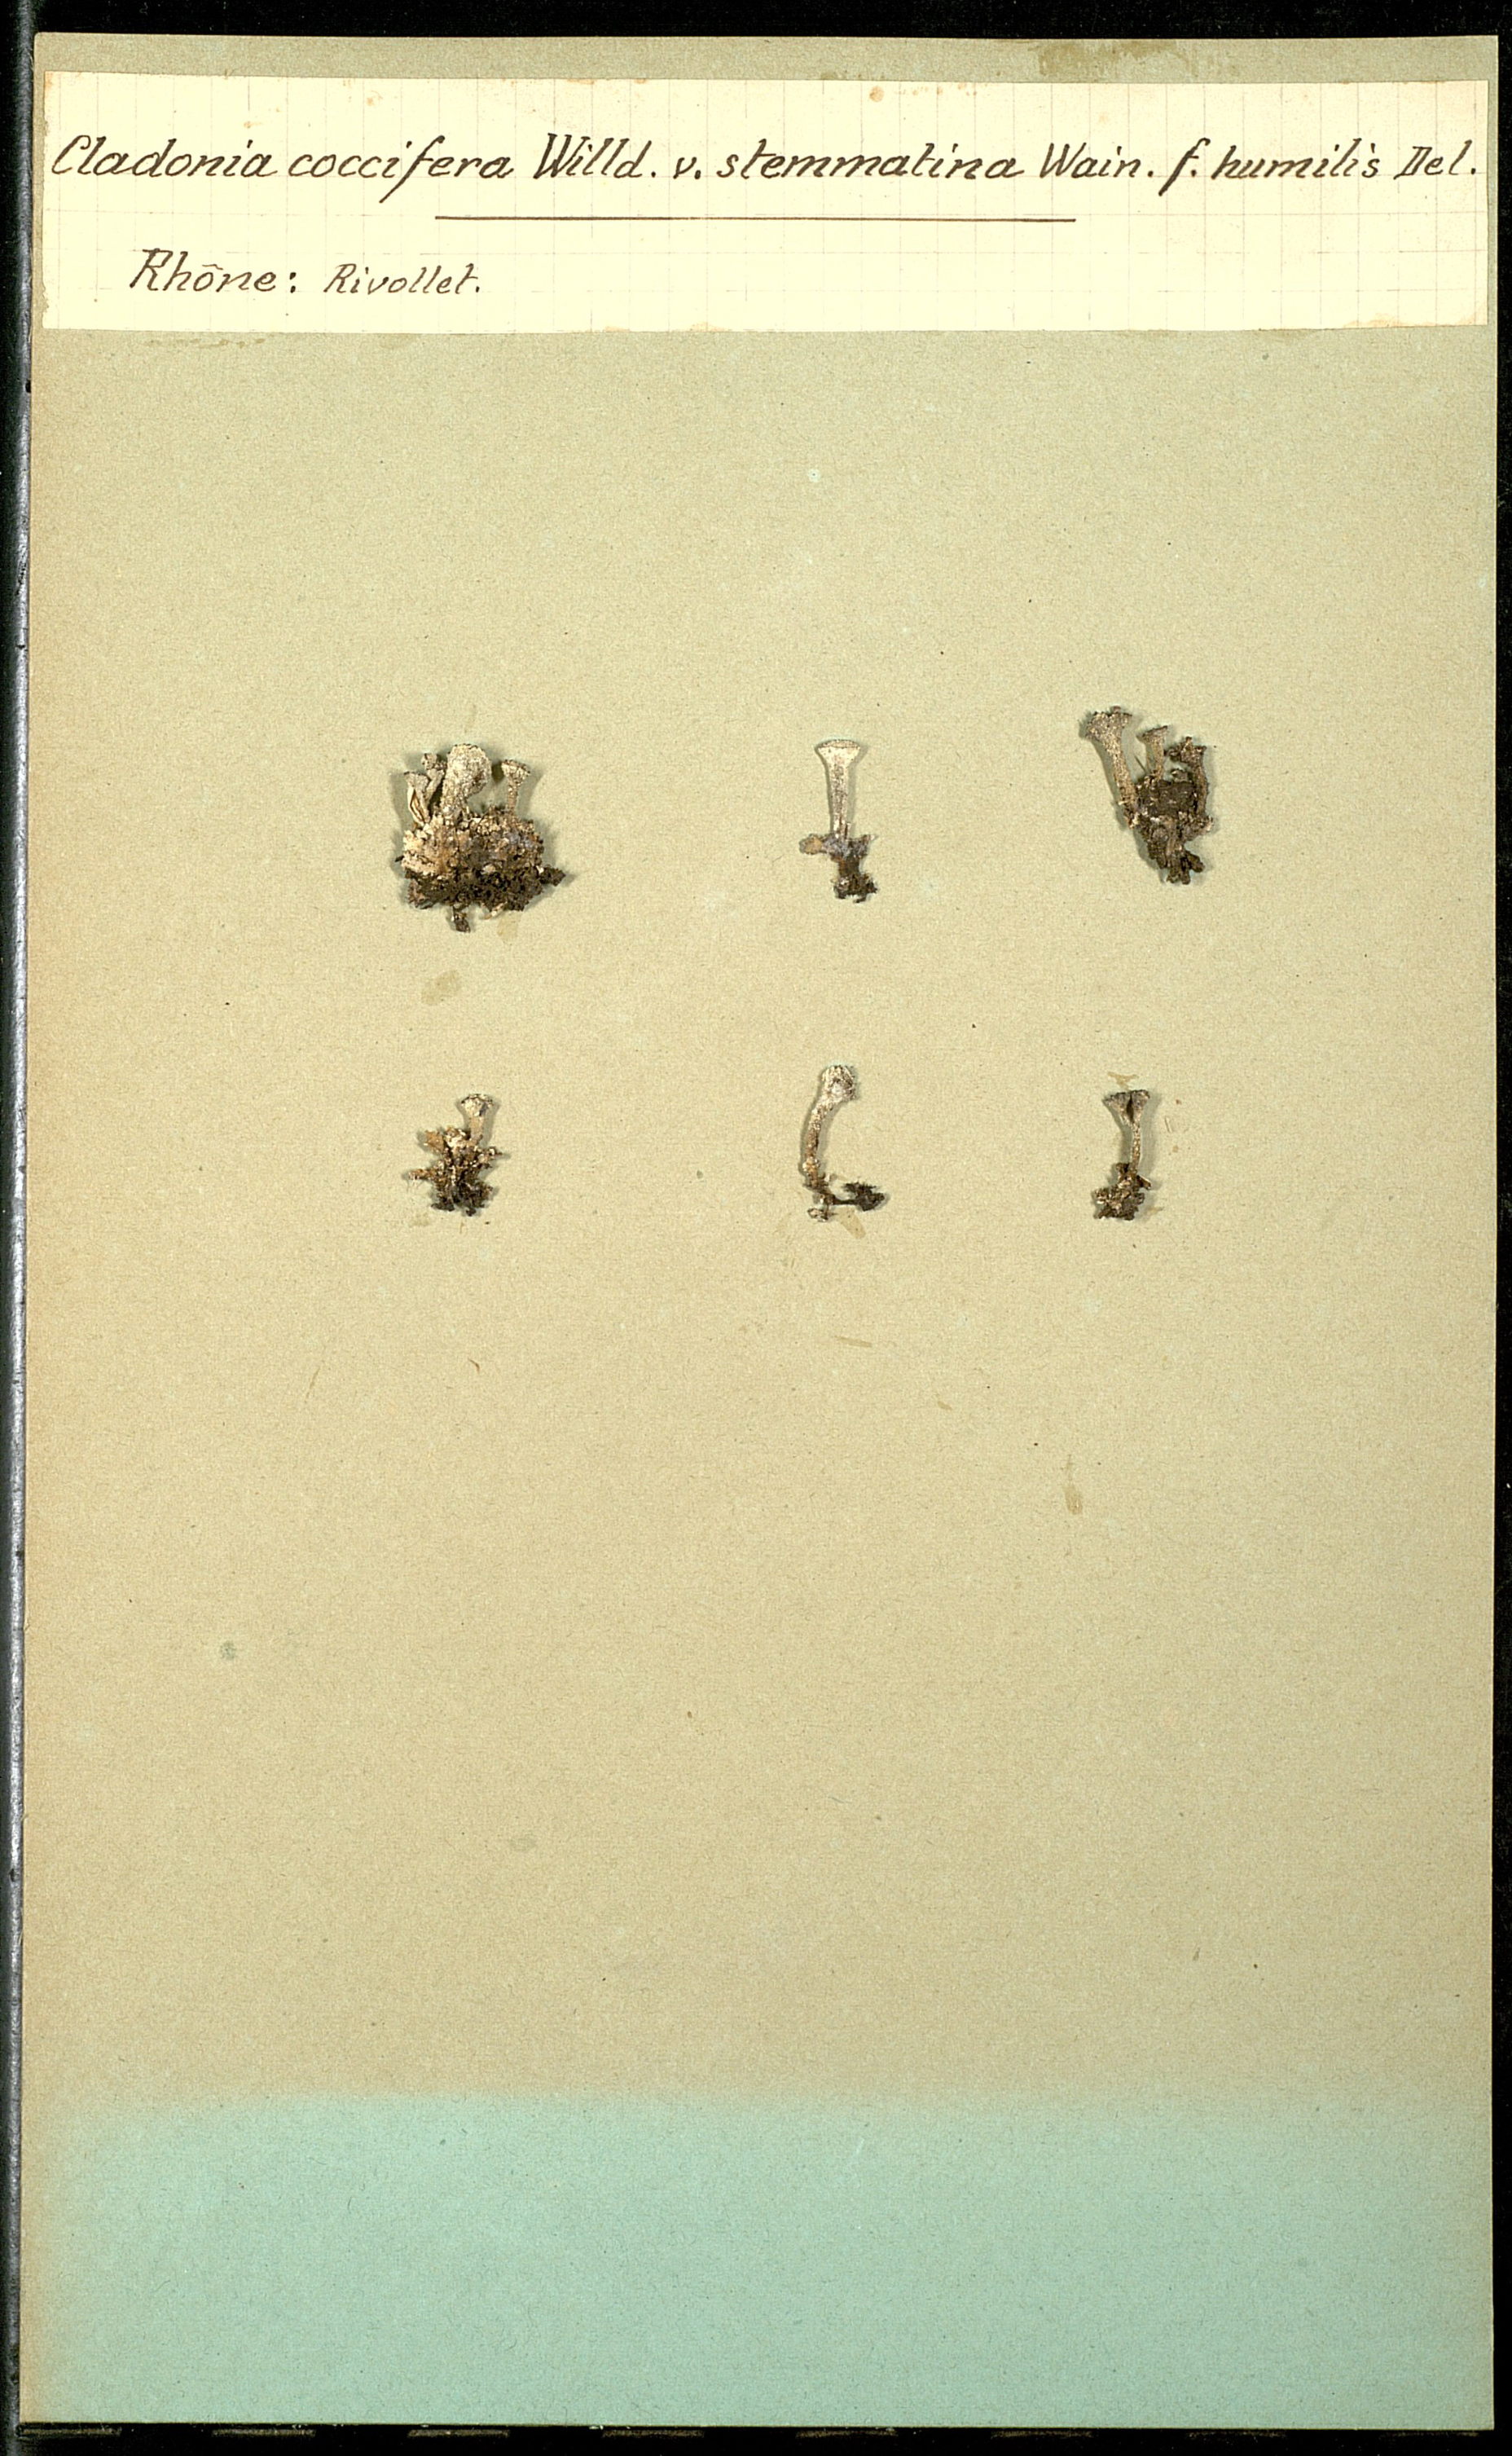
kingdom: Fungi
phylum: Ascomycota
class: Lecanoromycetes
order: Lecanorales
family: Cladoniaceae
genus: Cladonia
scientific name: Cladonia coccifera
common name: Scarlet-cup lichen
